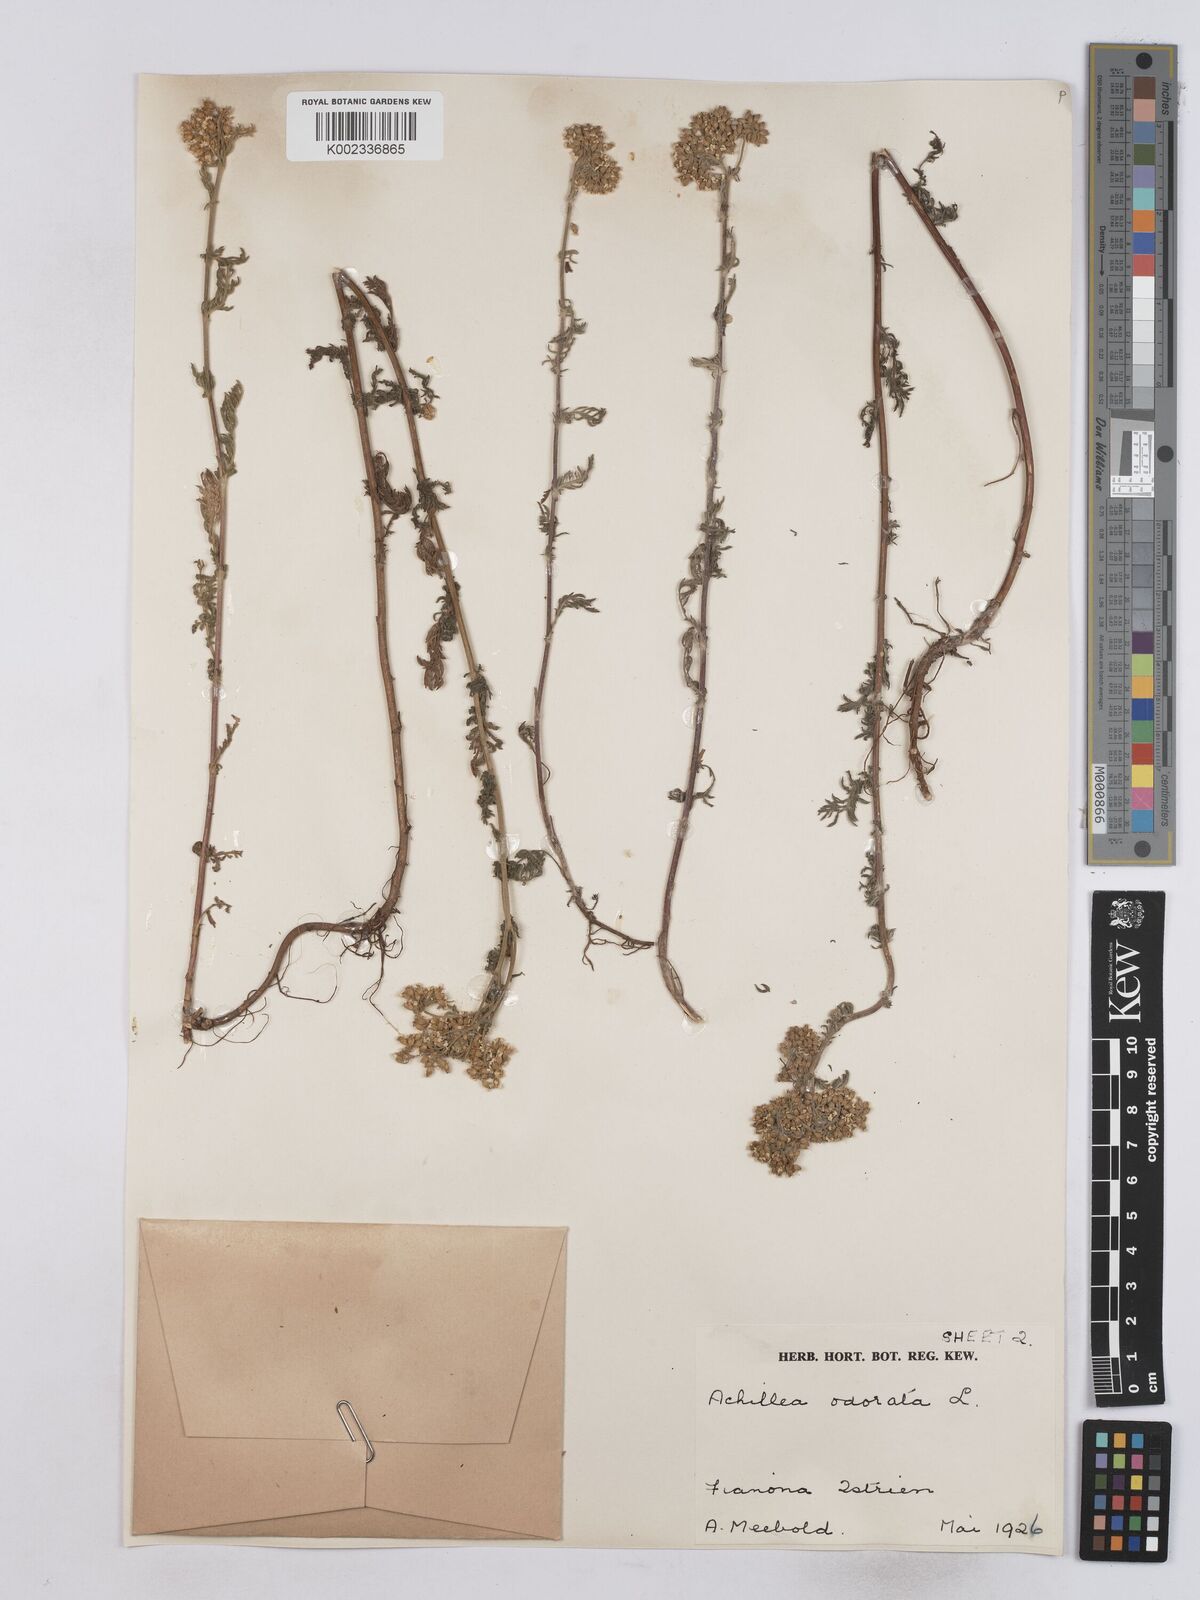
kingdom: Plantae
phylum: Tracheophyta
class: Magnoliopsida
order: Asterales
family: Asteraceae
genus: Achillea
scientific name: Achillea odorata
